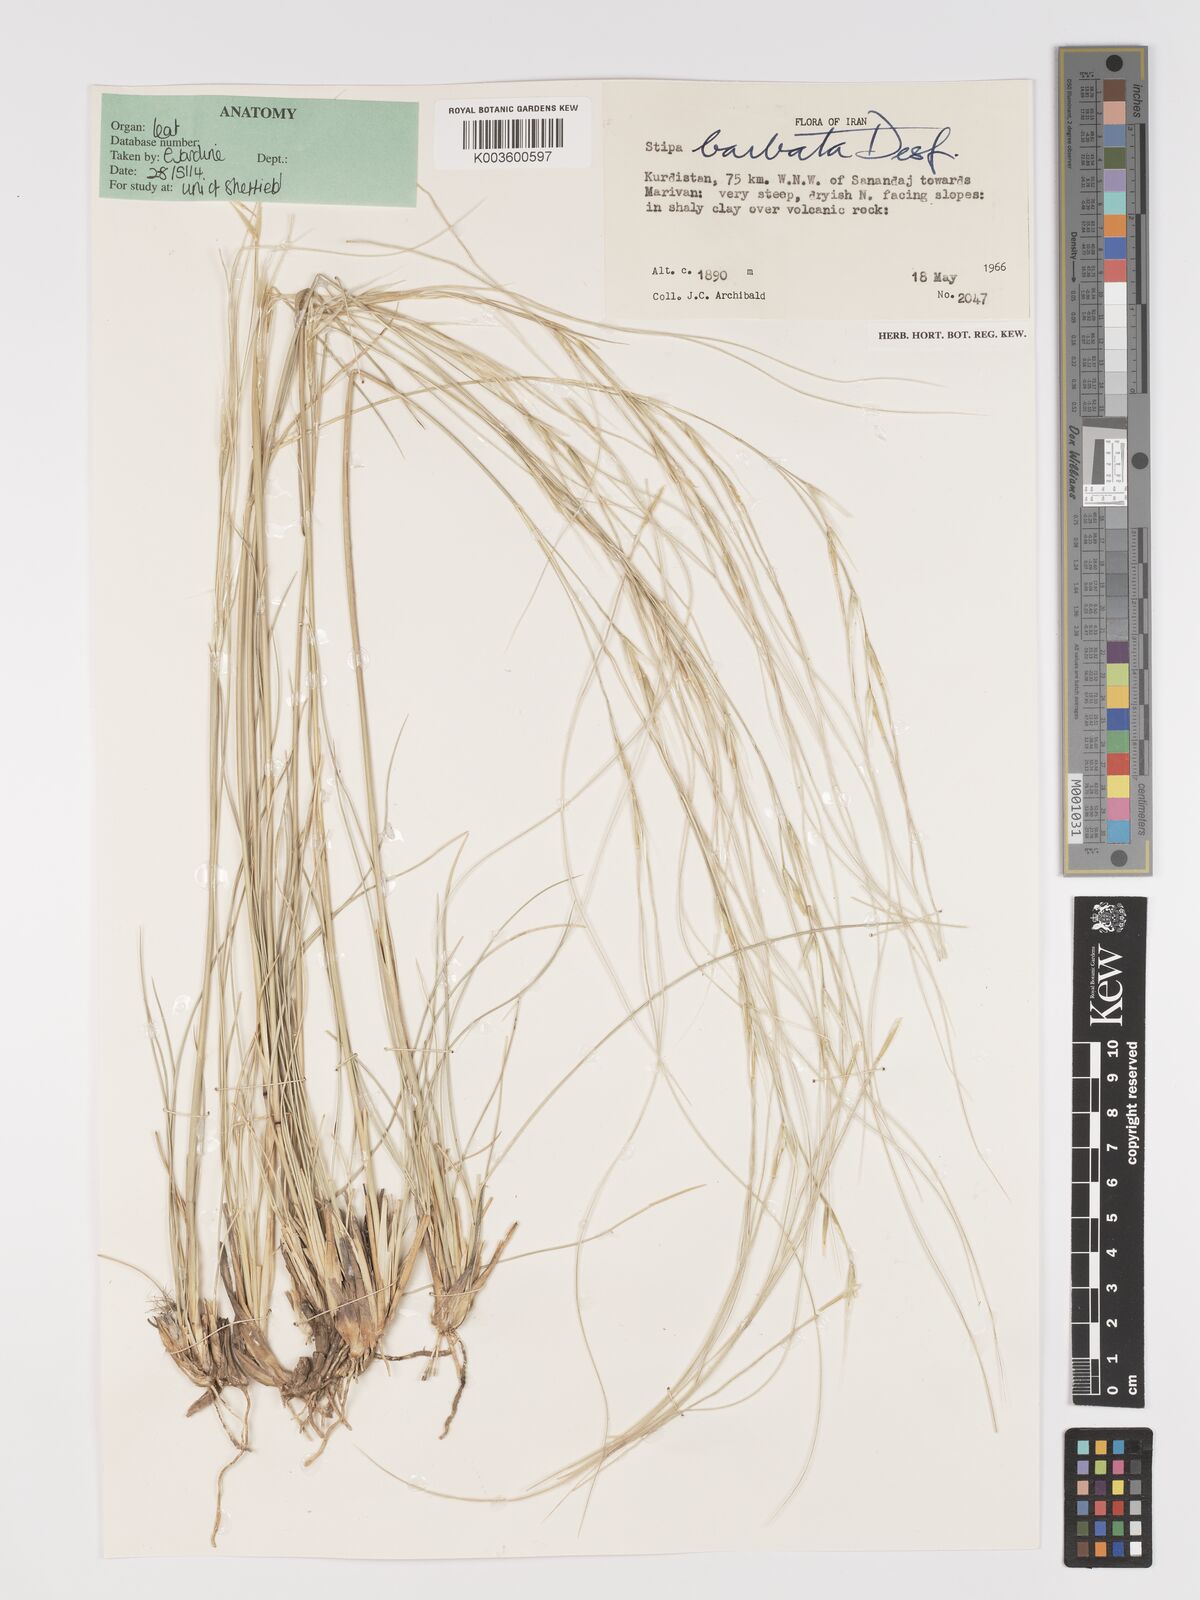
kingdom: Plantae
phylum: Tracheophyta
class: Liliopsida
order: Poales
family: Poaceae
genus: Stipa
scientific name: Stipa barbata
